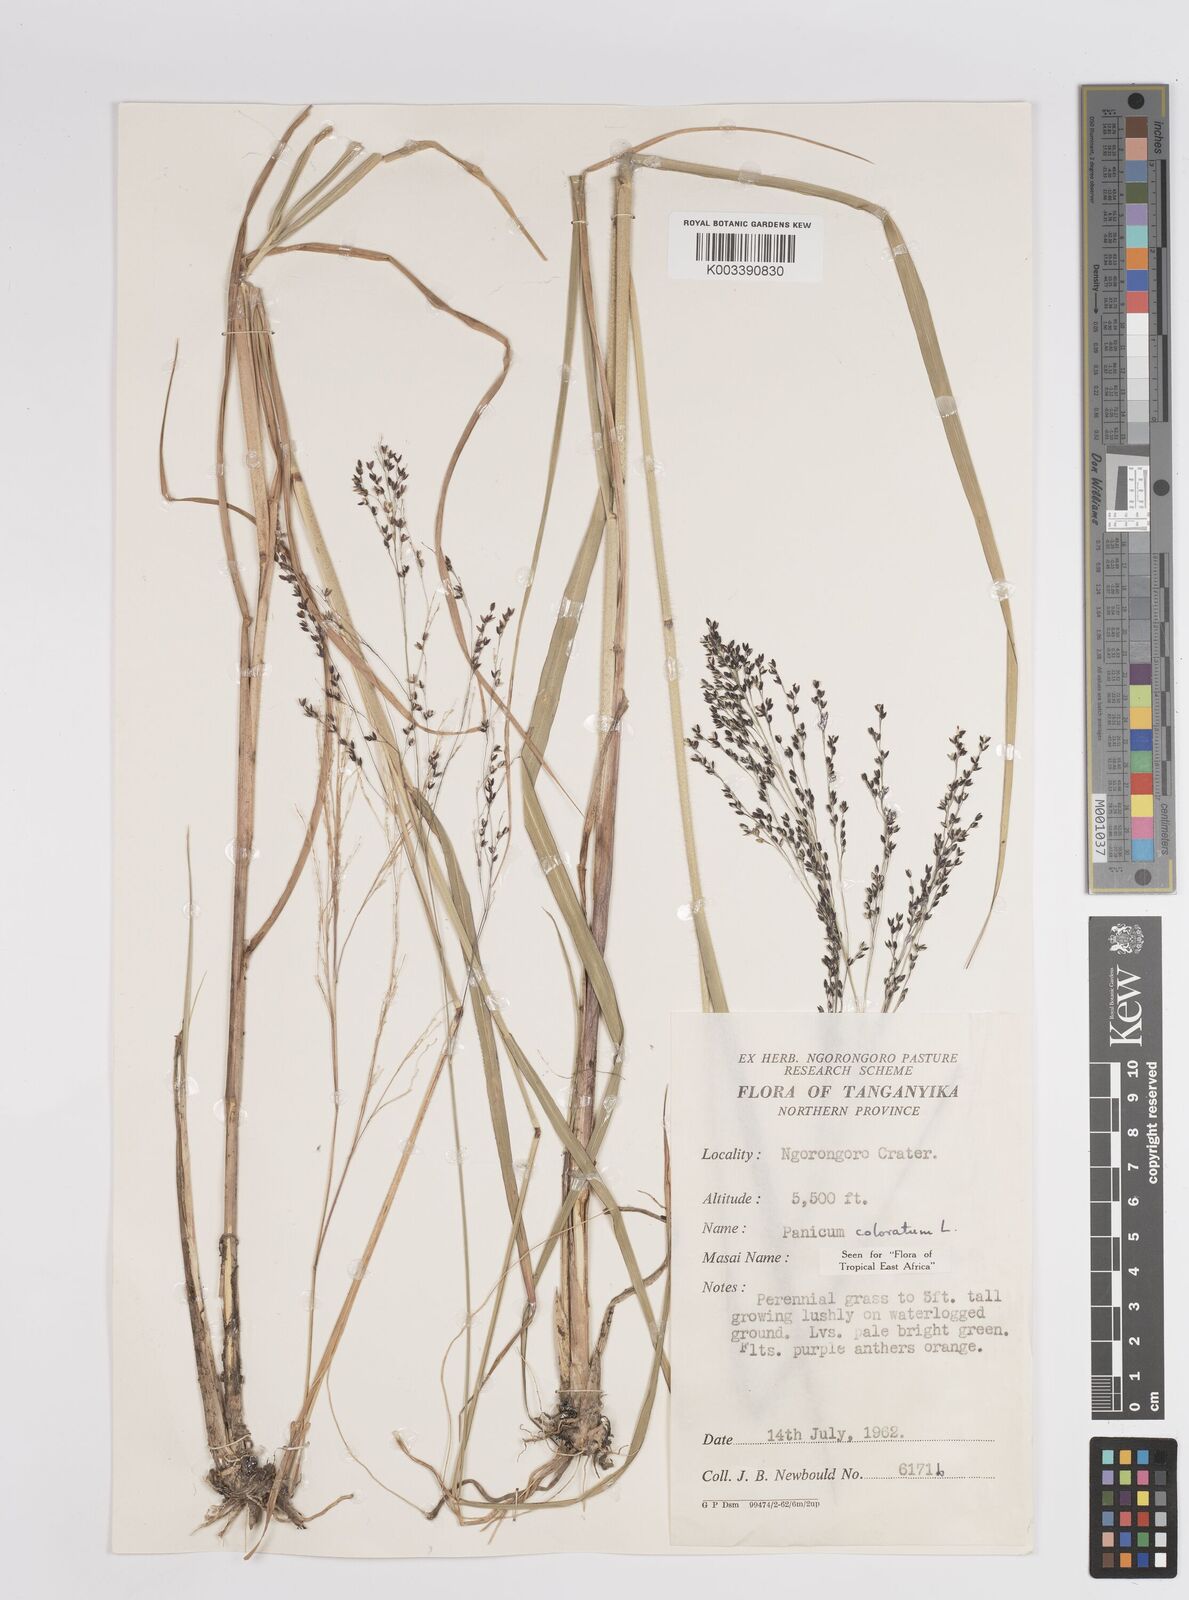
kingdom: Plantae
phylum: Tracheophyta
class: Liliopsida
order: Poales
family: Poaceae
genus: Panicum
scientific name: Panicum coloratum
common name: Kleingrass
